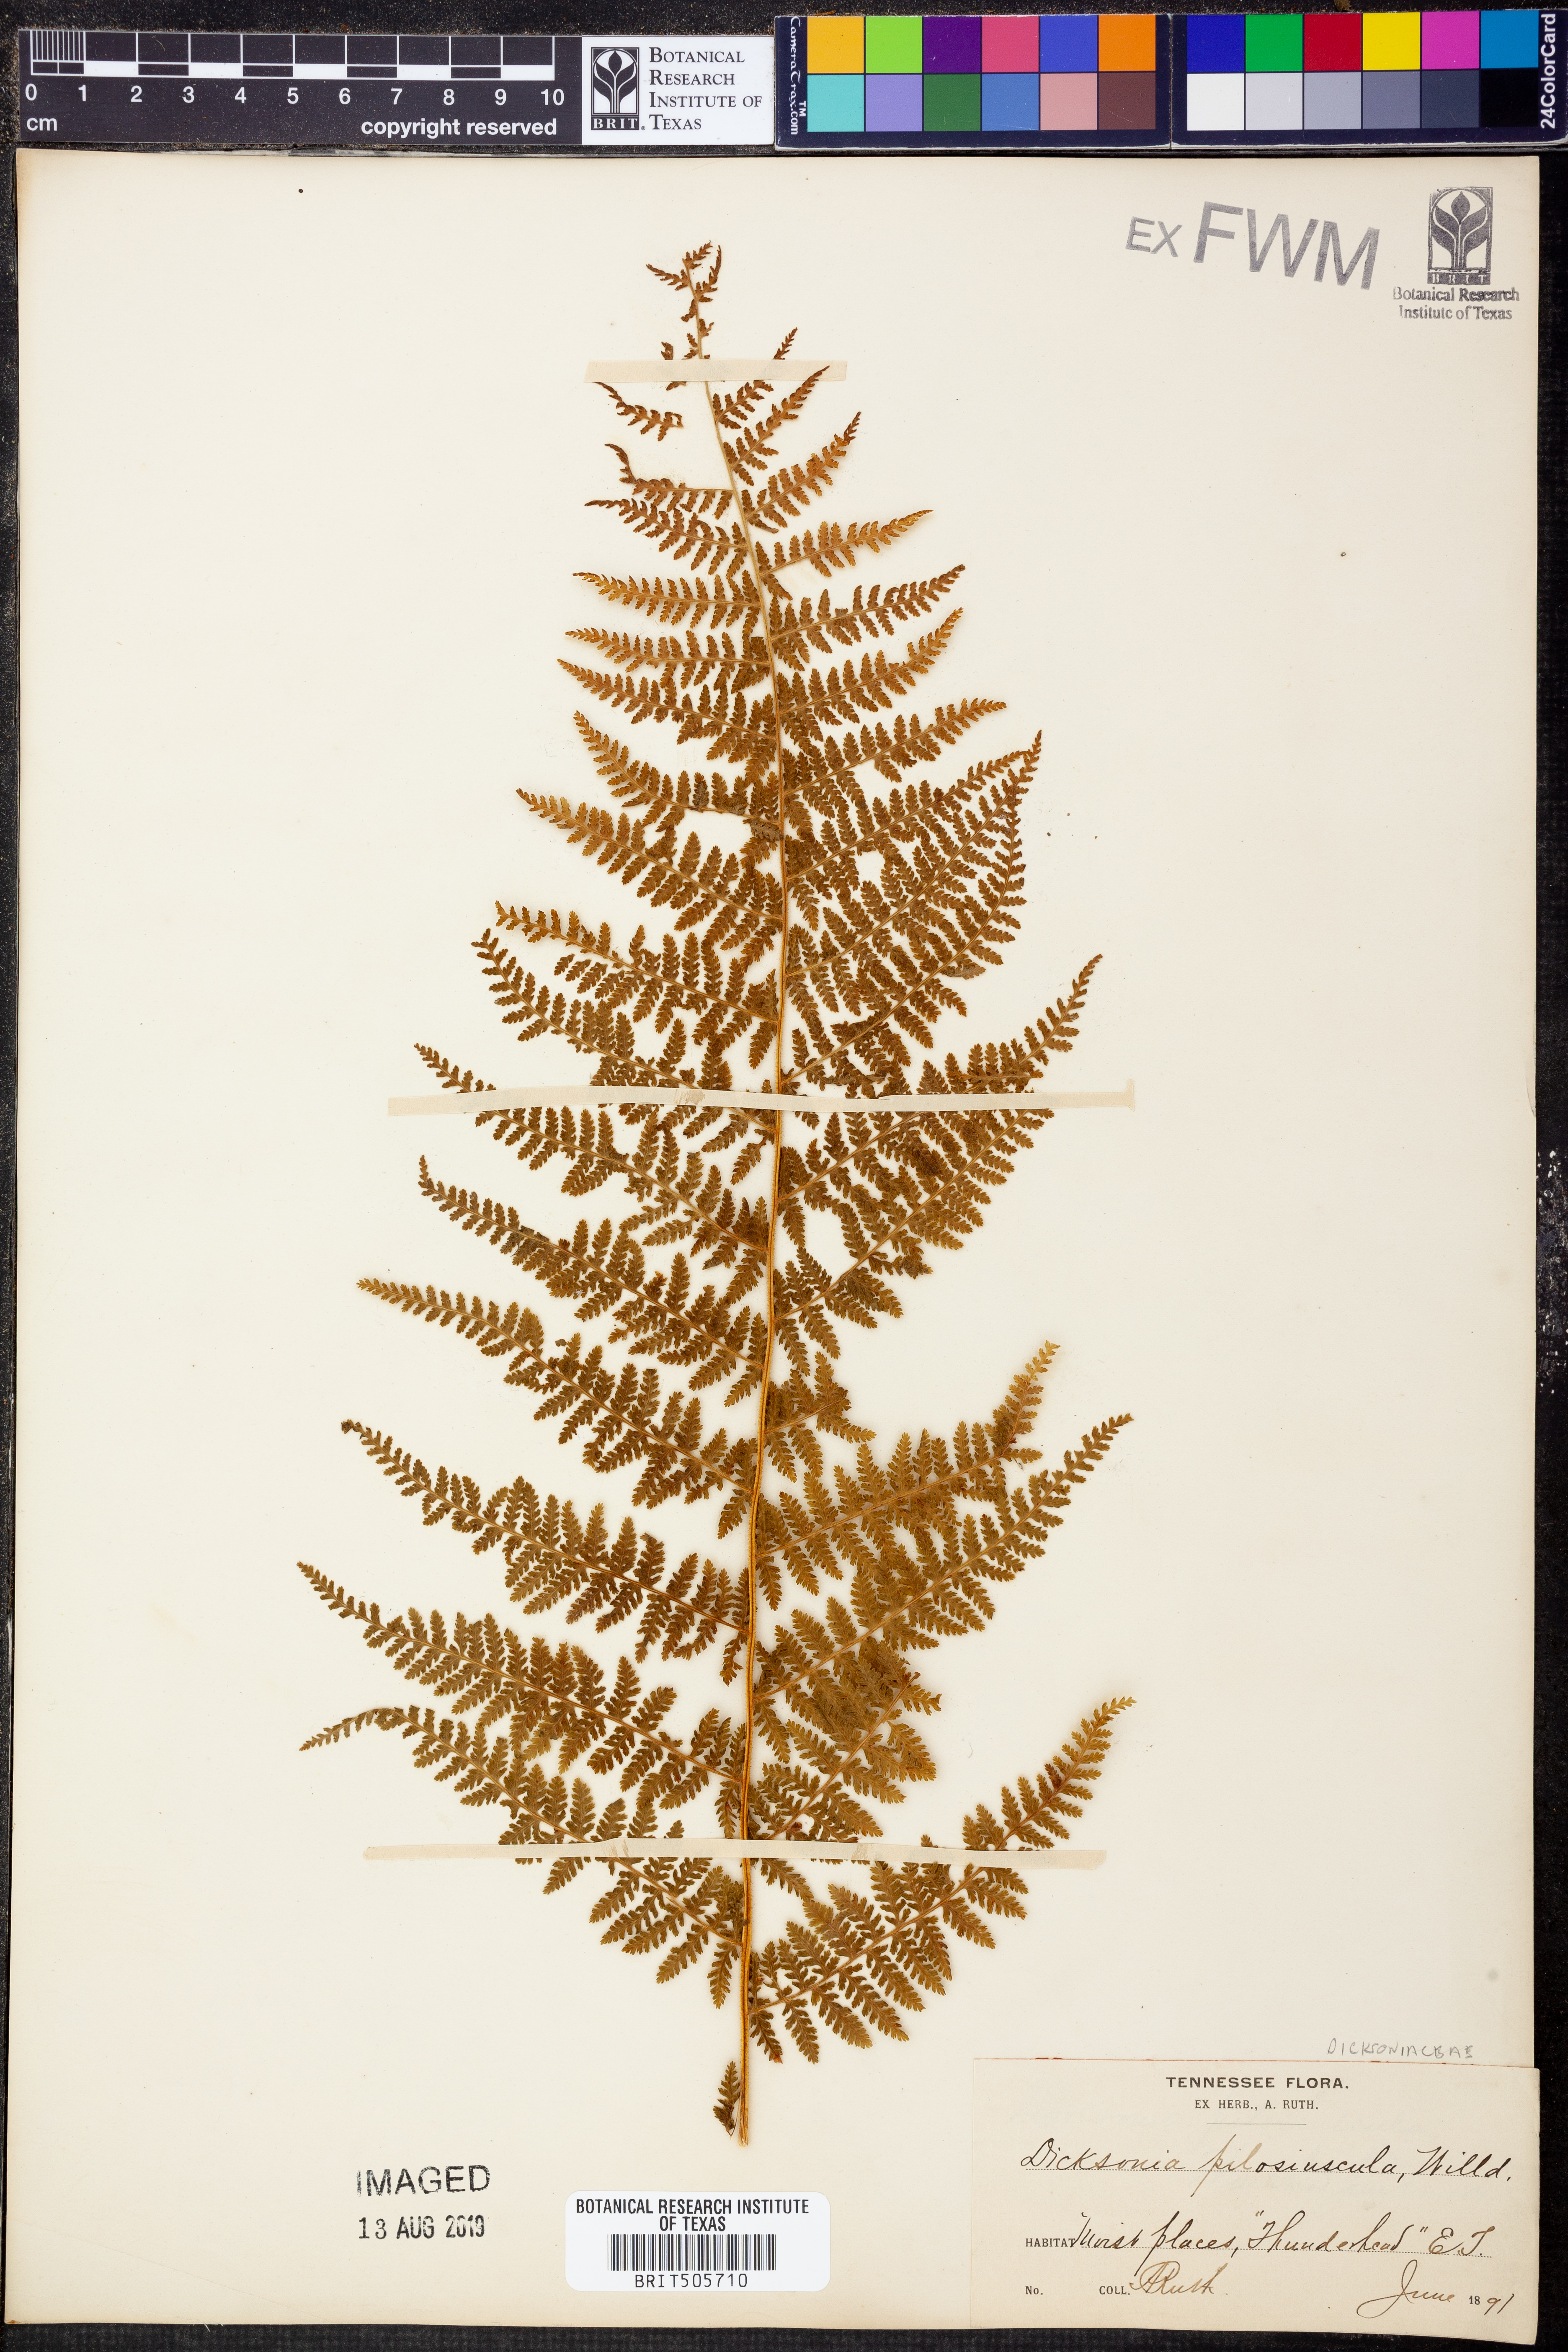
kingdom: Plantae
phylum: Tracheophyta
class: Polypodiopsida
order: Polypodiales
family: Dennstaedtiaceae
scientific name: Dennstaedtiaceae
